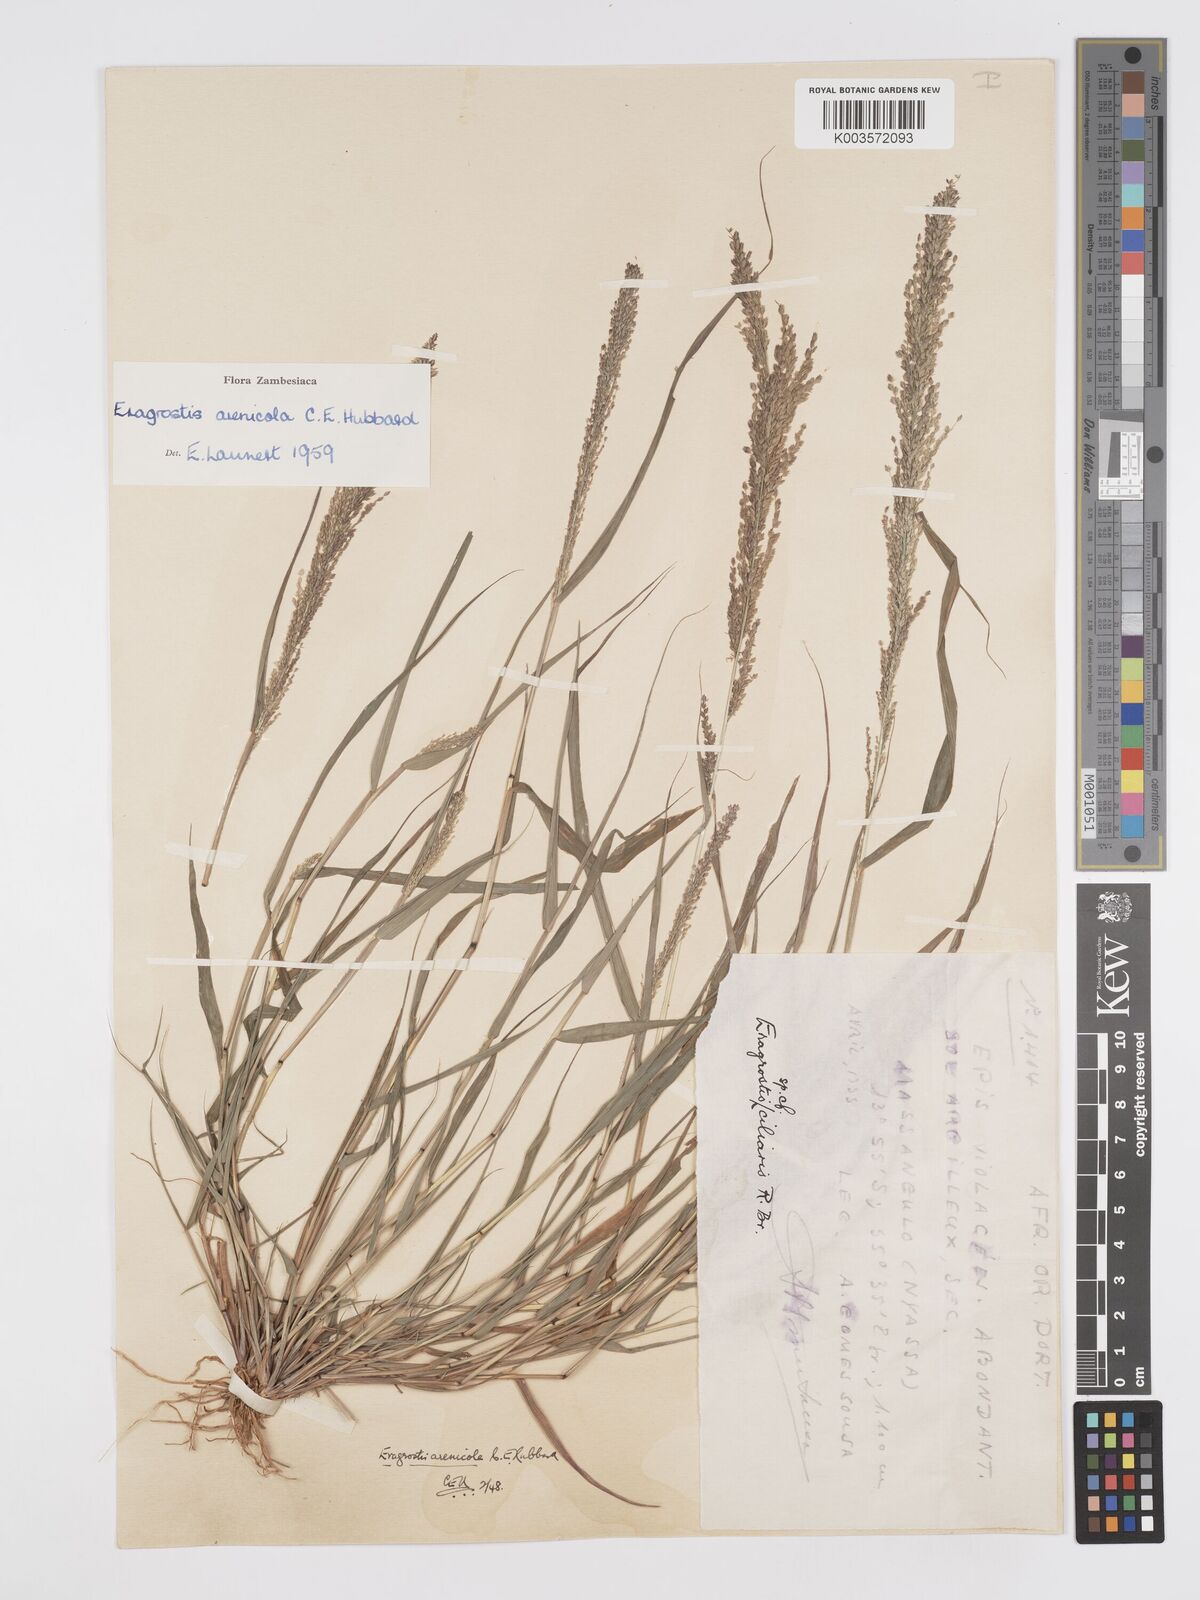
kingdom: Plantae
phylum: Tracheophyta
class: Liliopsida
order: Poales
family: Poaceae
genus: Eragrostis
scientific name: Eragrostis arenicola
